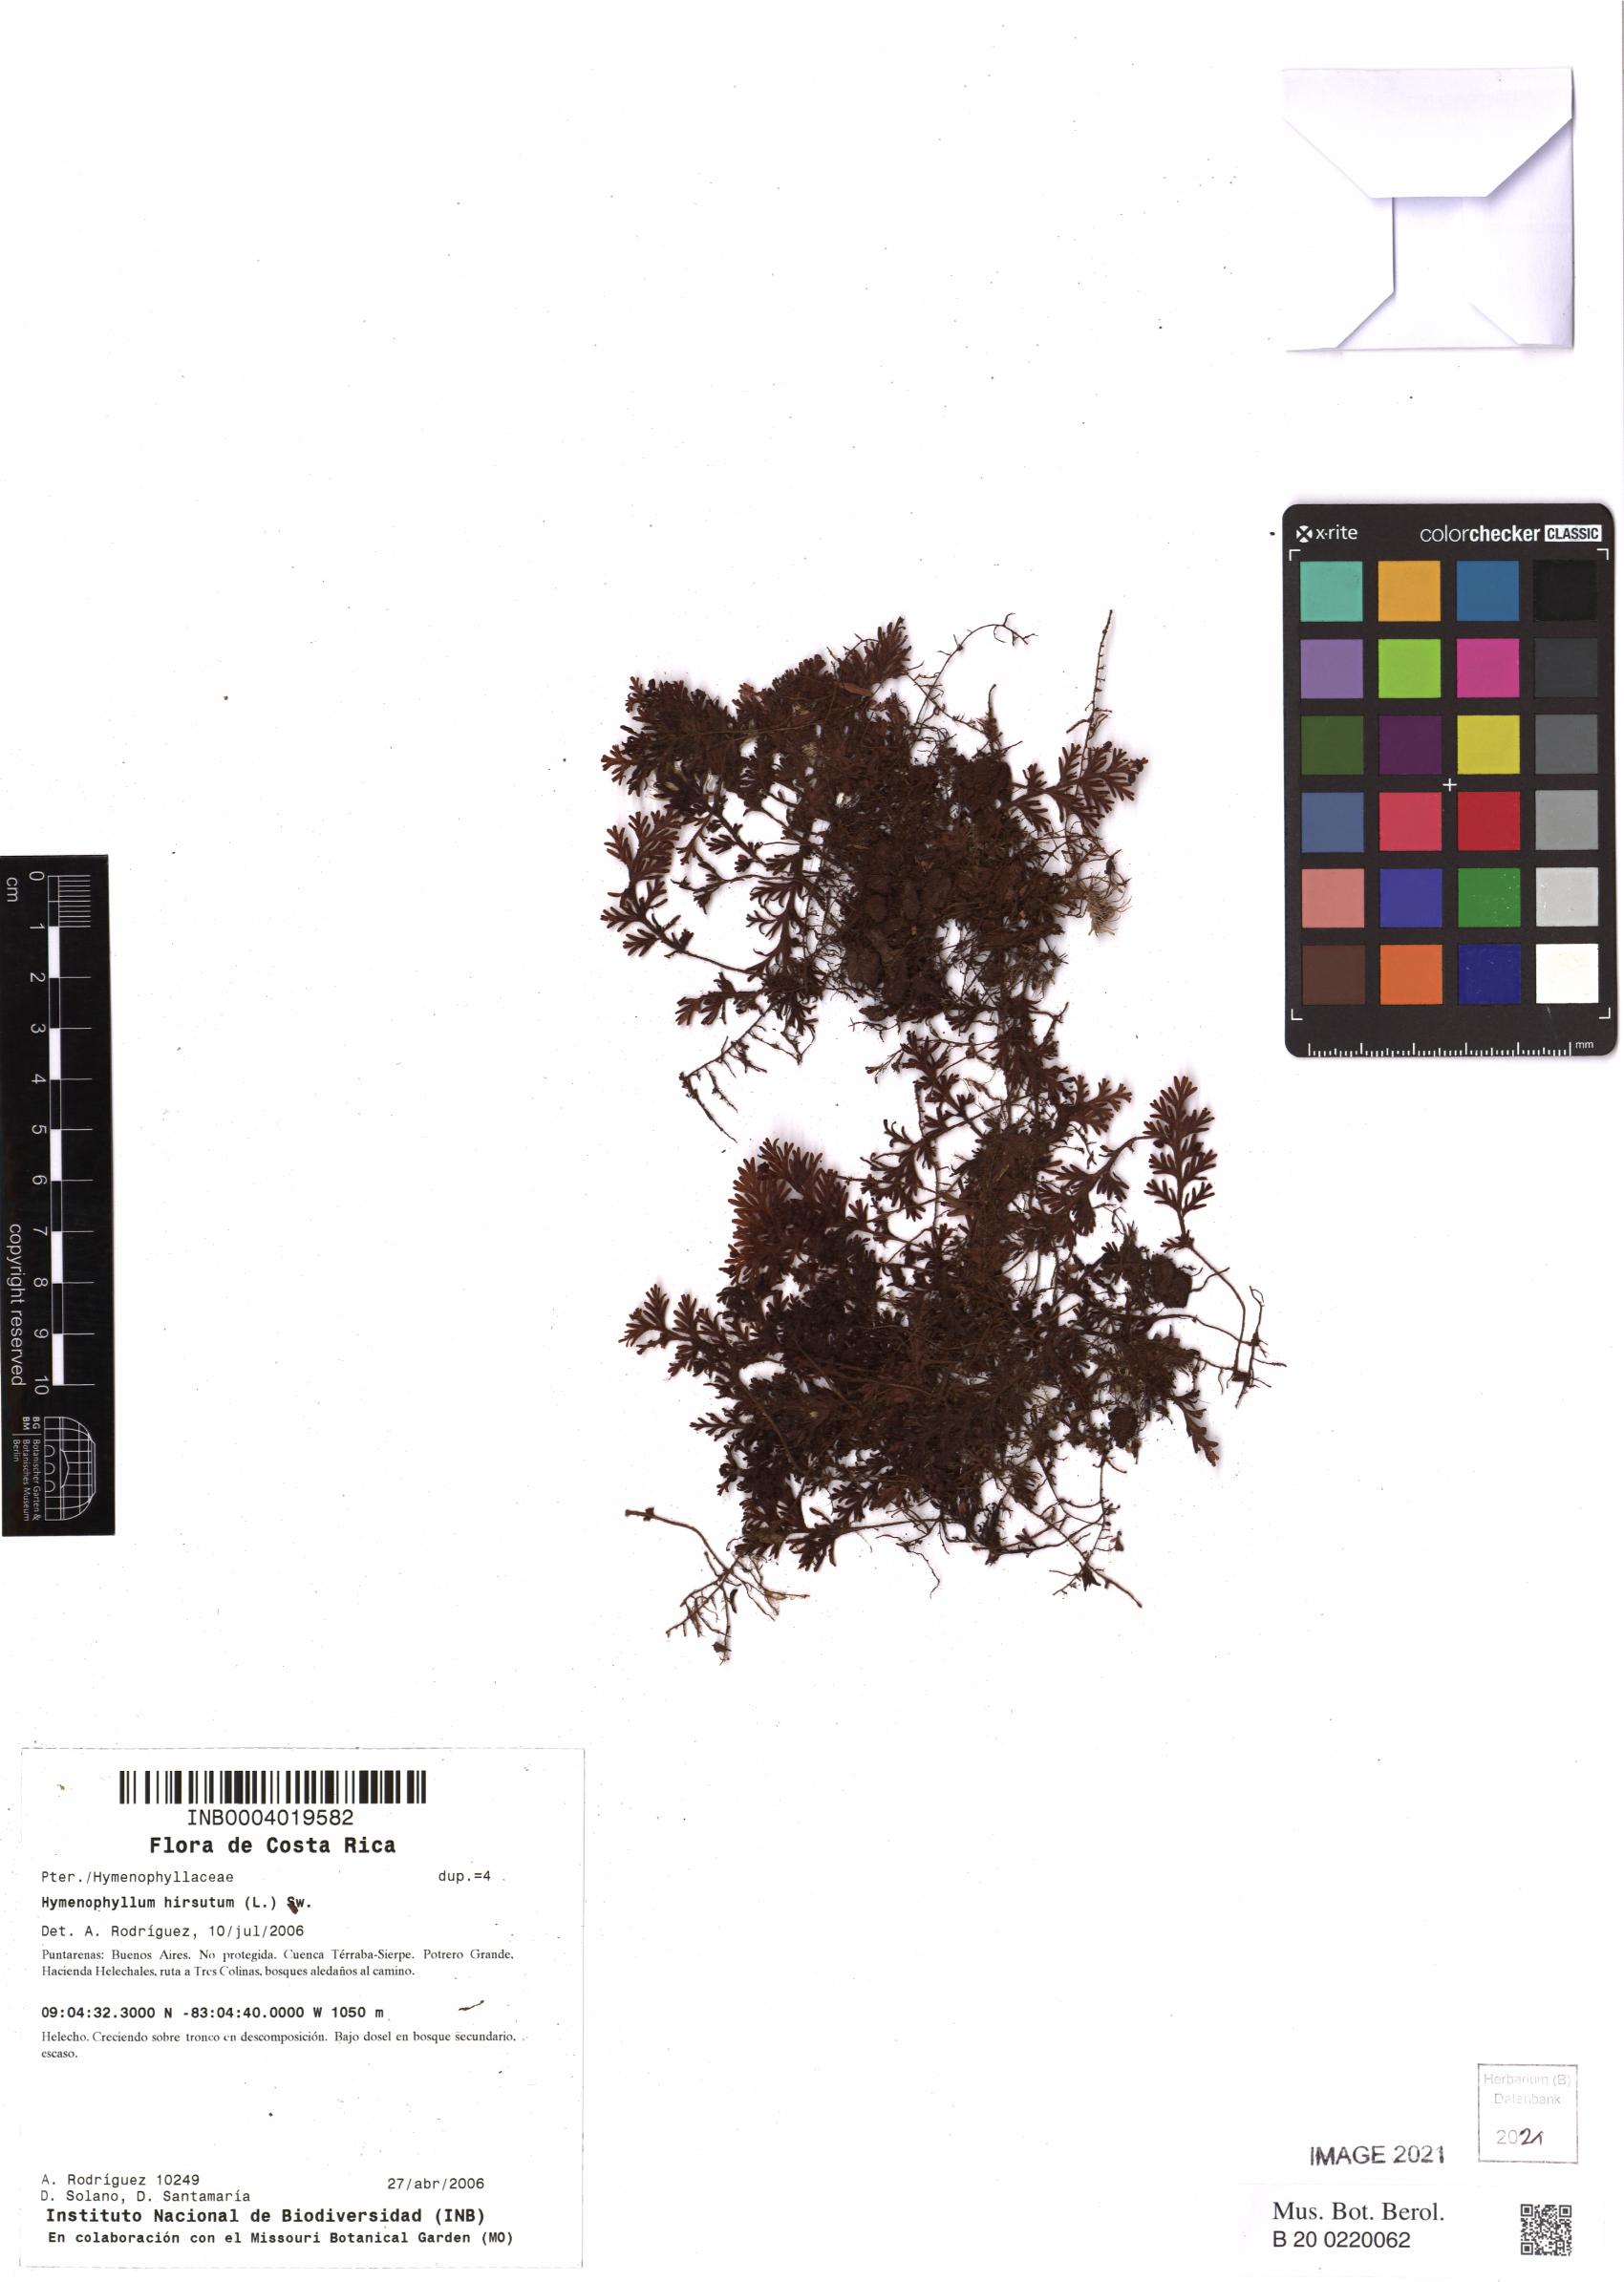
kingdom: Plantae
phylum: Tracheophyta
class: Polypodiopsida
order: Hymenophyllales
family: Hymenophyllaceae
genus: Hymenophyllum
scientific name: Hymenophyllum hirsutum
